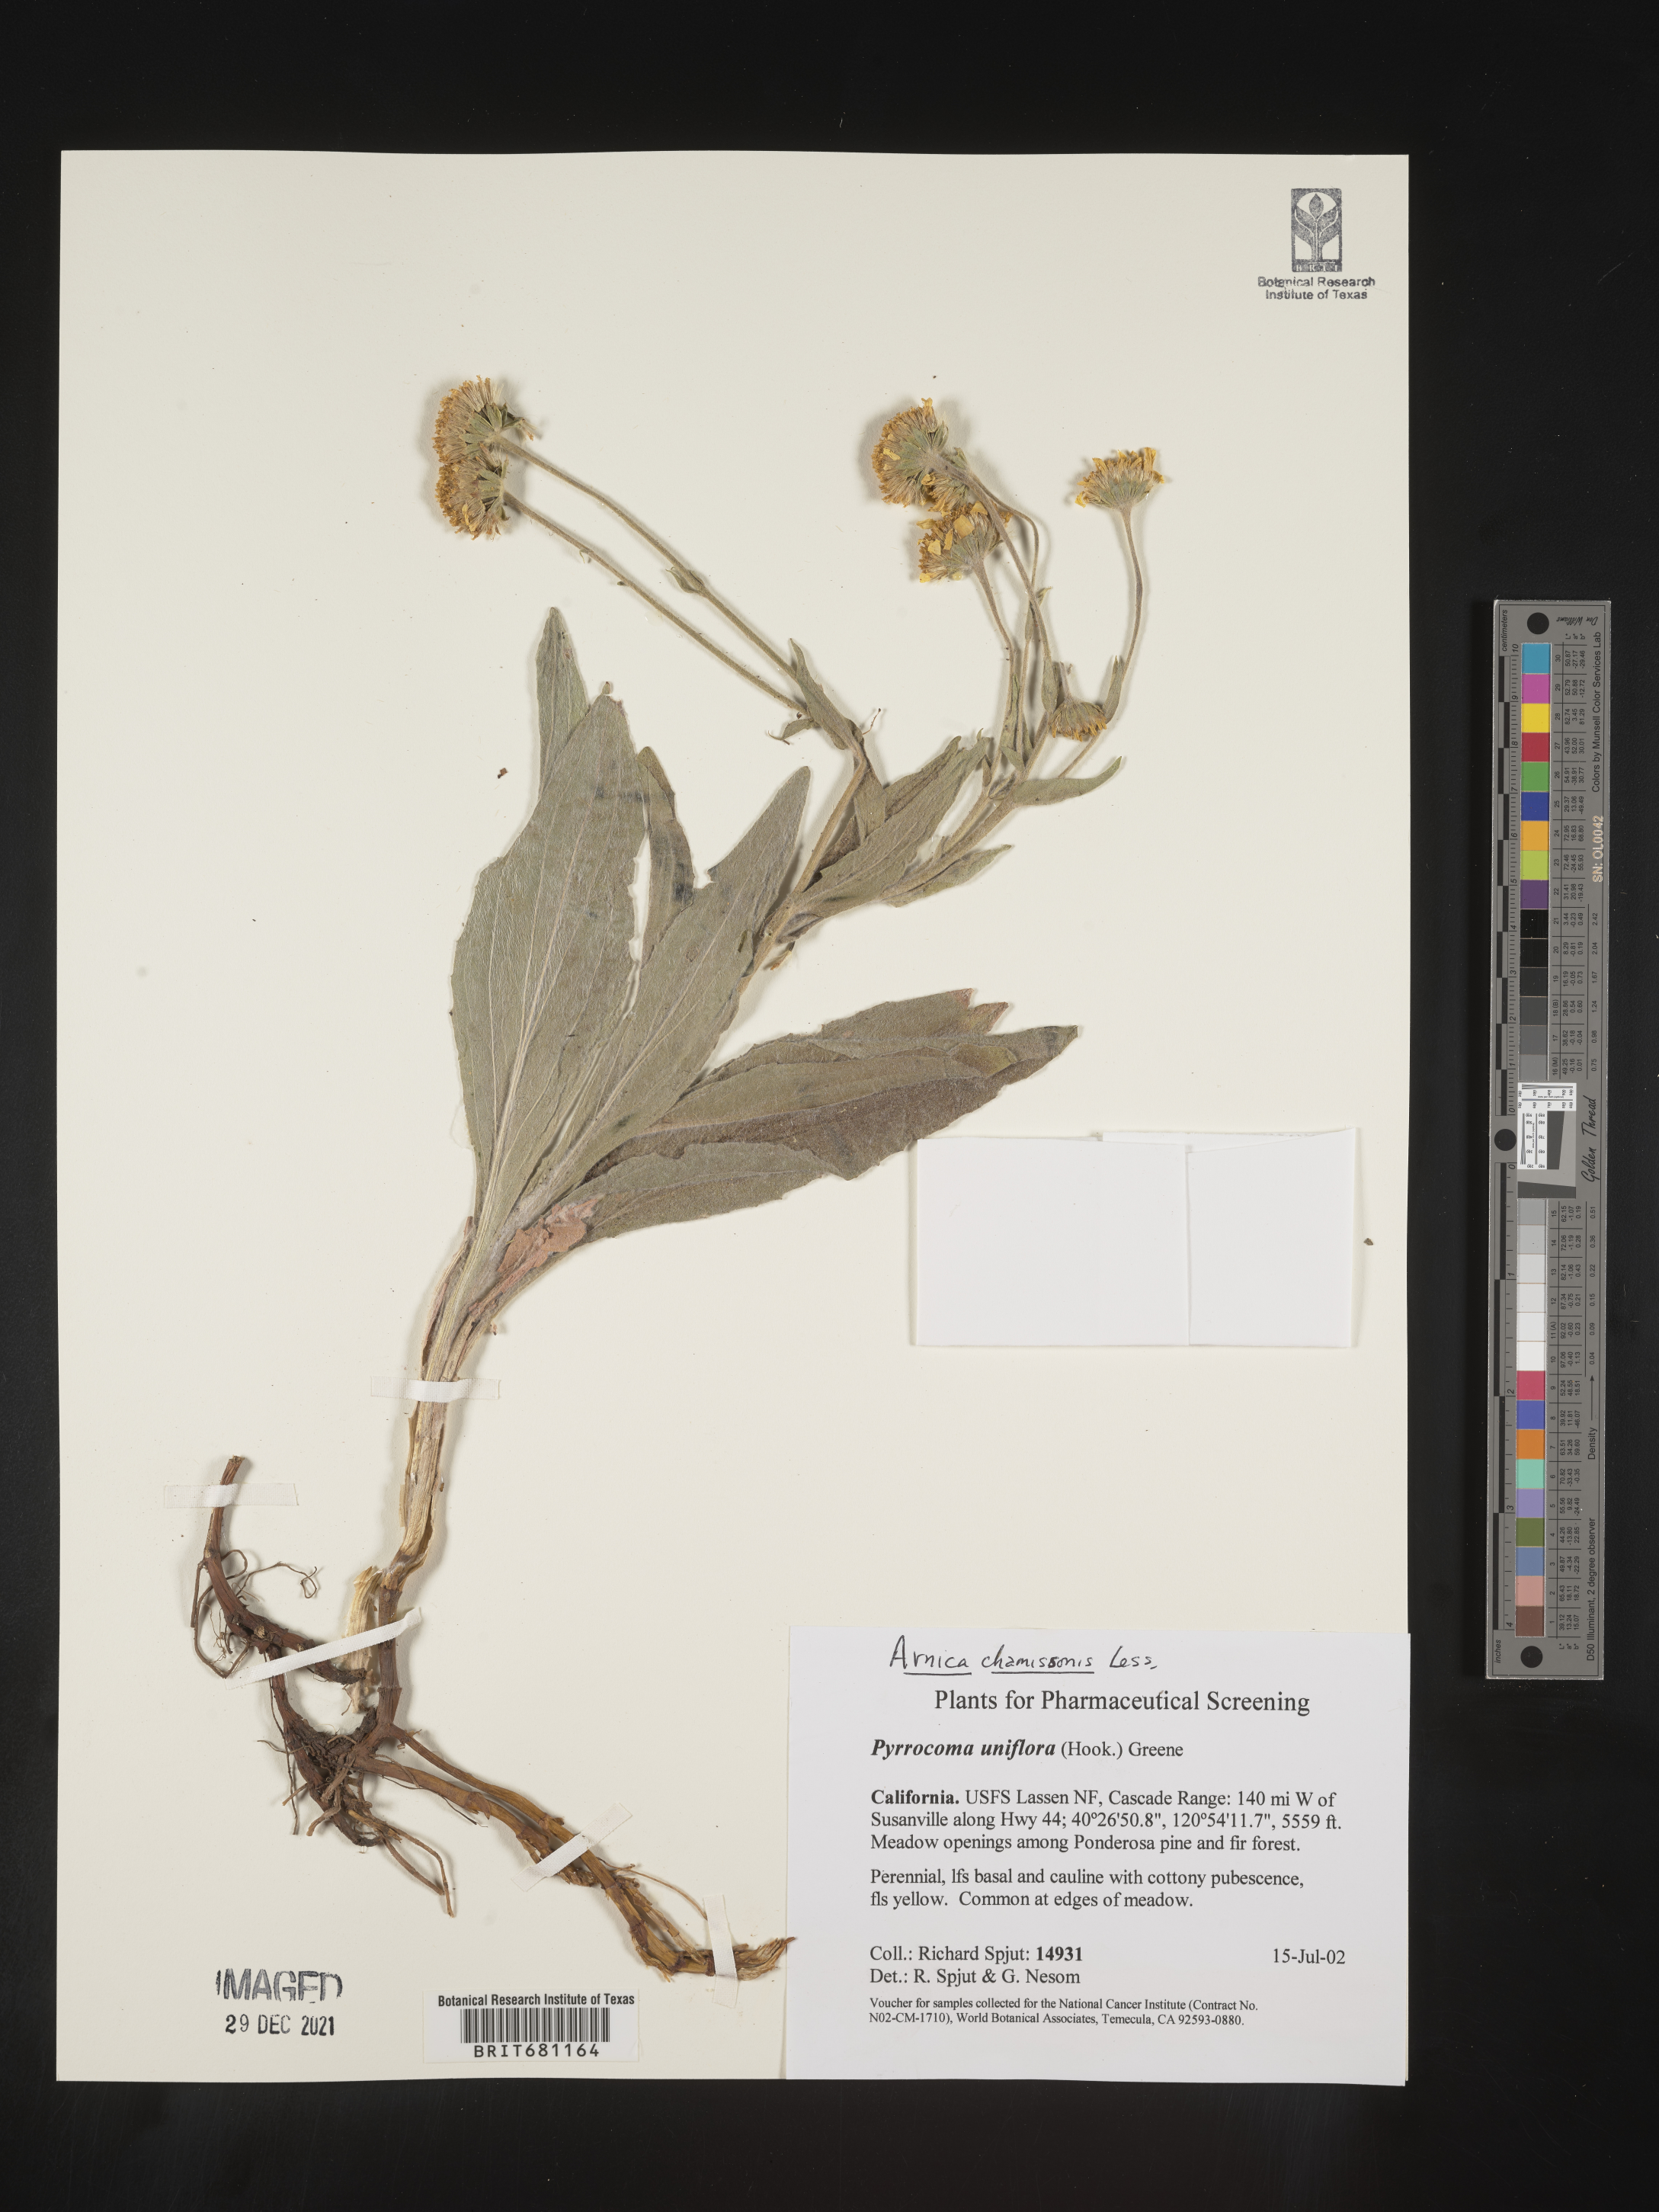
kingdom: Plantae
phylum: Tracheophyta
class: Magnoliopsida
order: Asterales
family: Asteraceae
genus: Arnica
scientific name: Arnica chamissonis
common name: Leafy arnica
